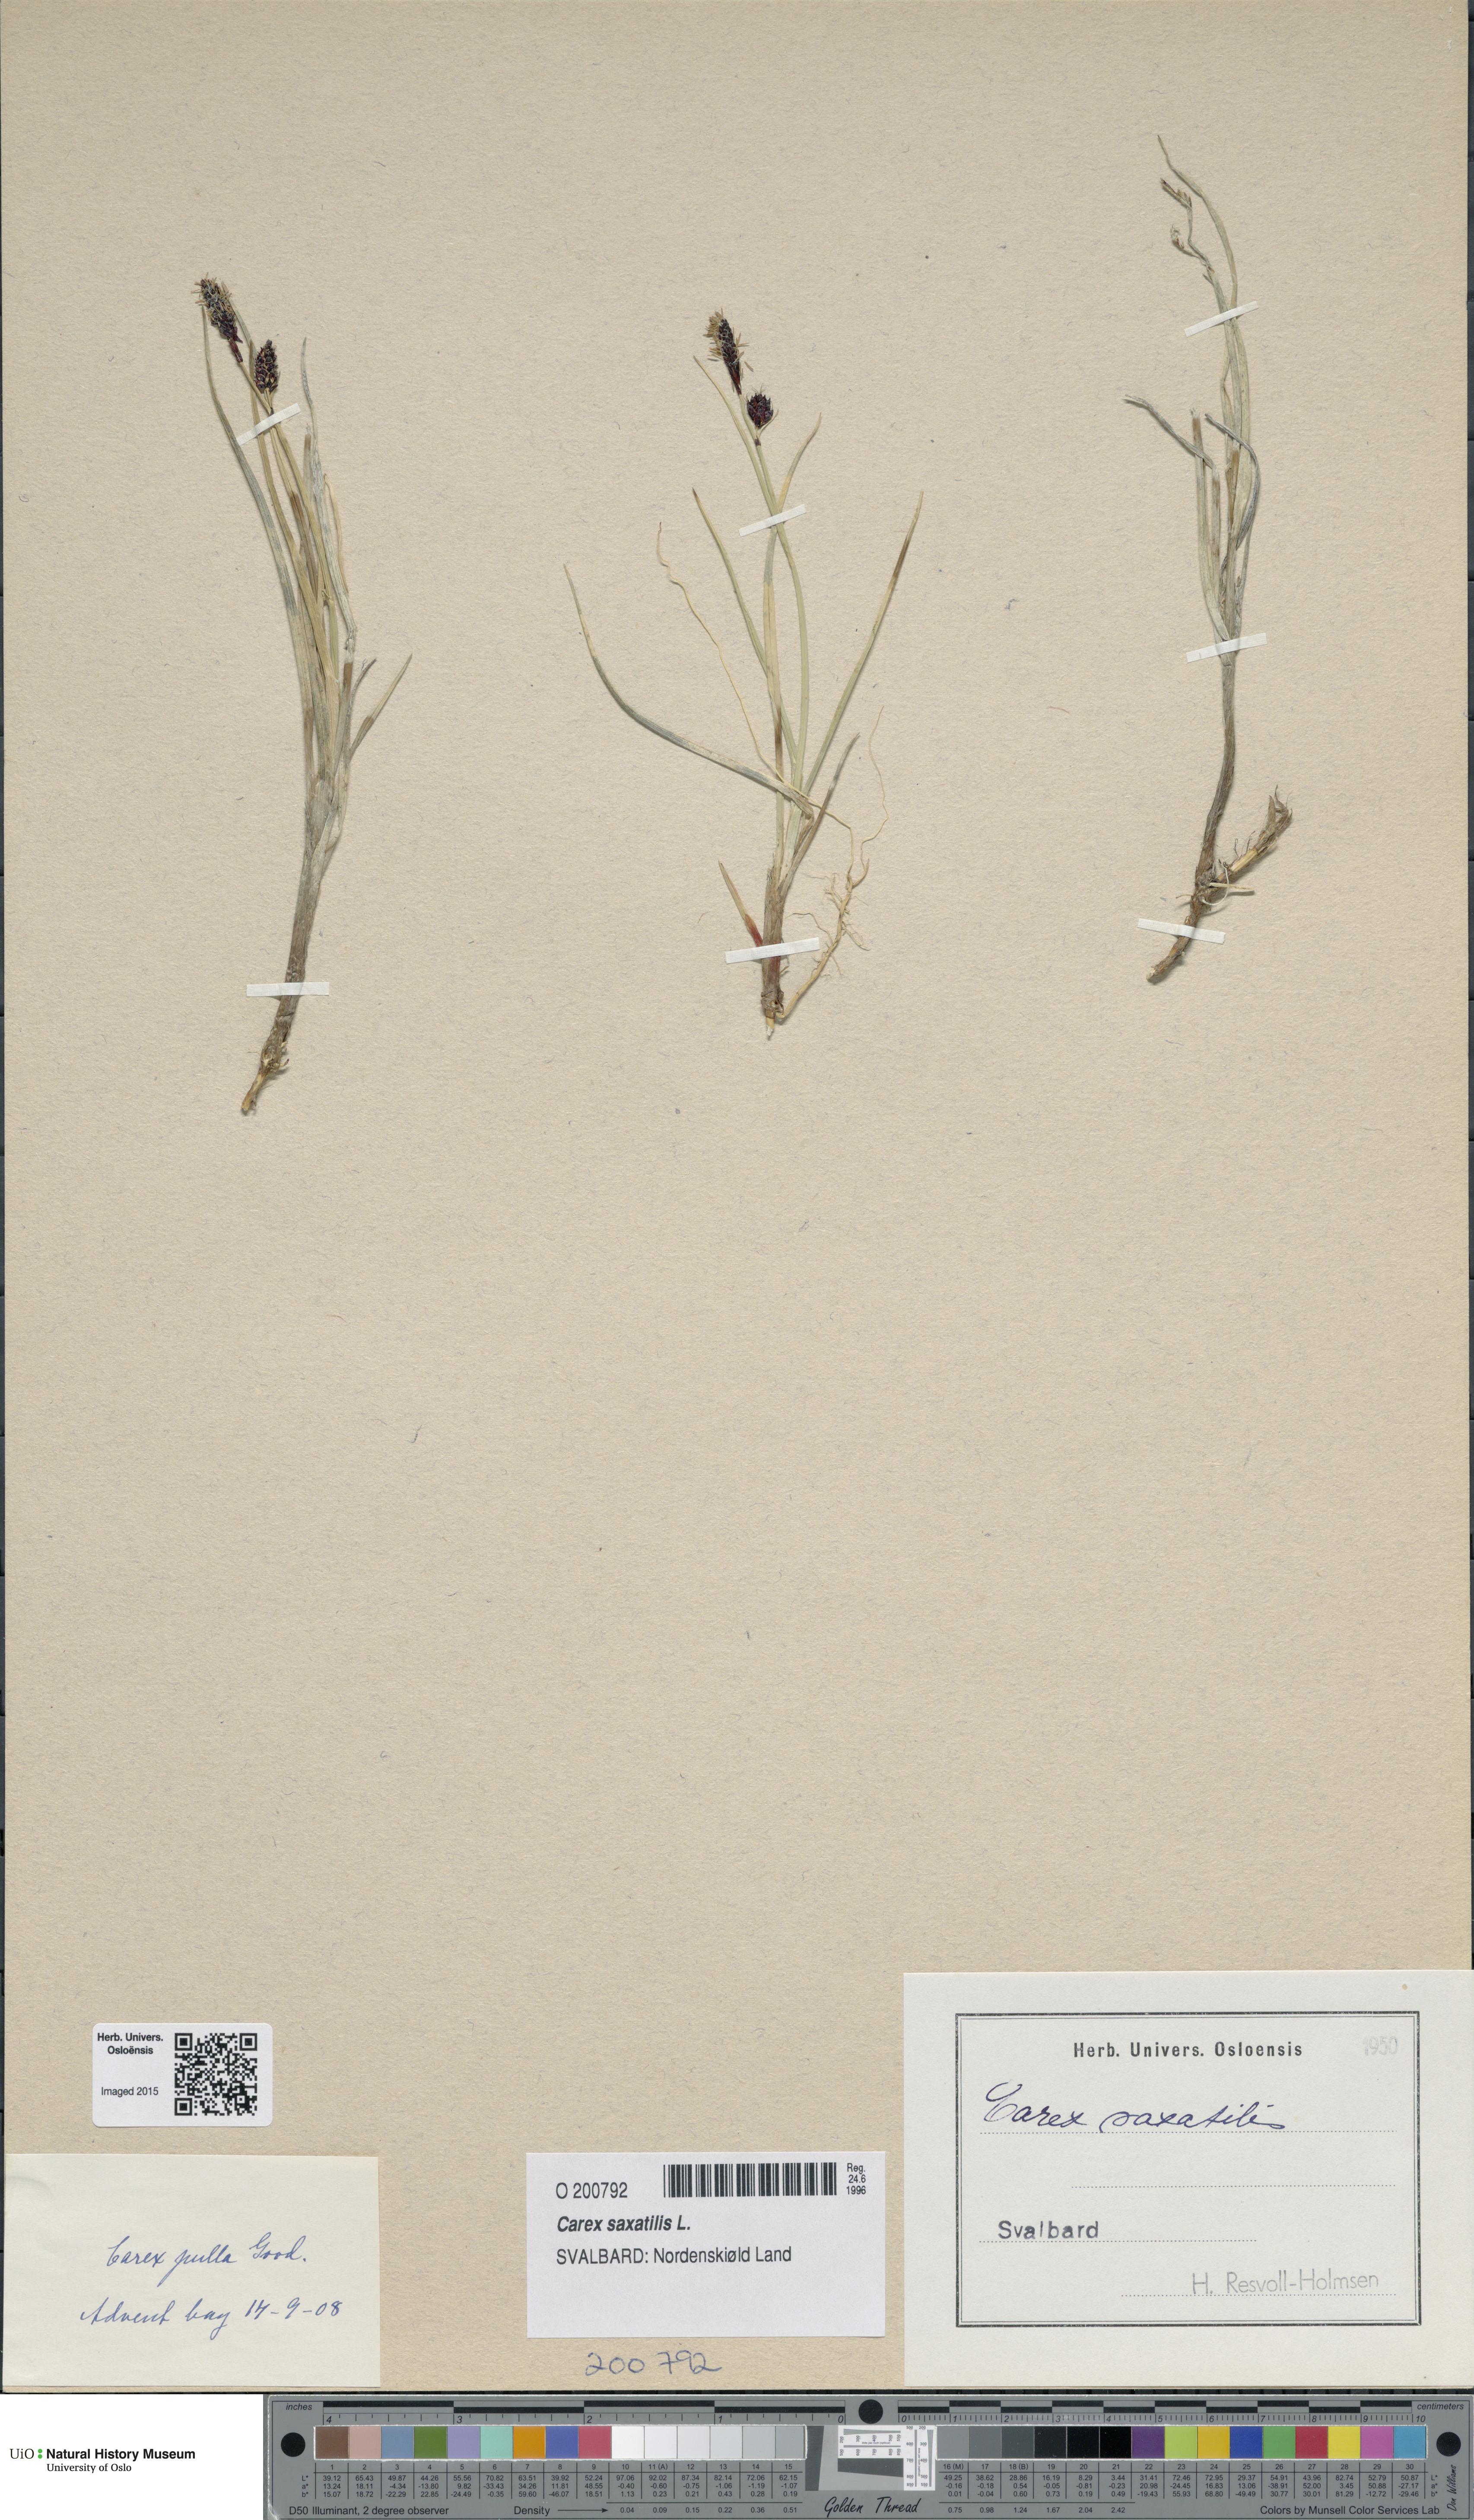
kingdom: Plantae
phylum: Tracheophyta
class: Liliopsida
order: Poales
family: Cyperaceae
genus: Carex
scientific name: Carex saxatilis
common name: Russet sedge
